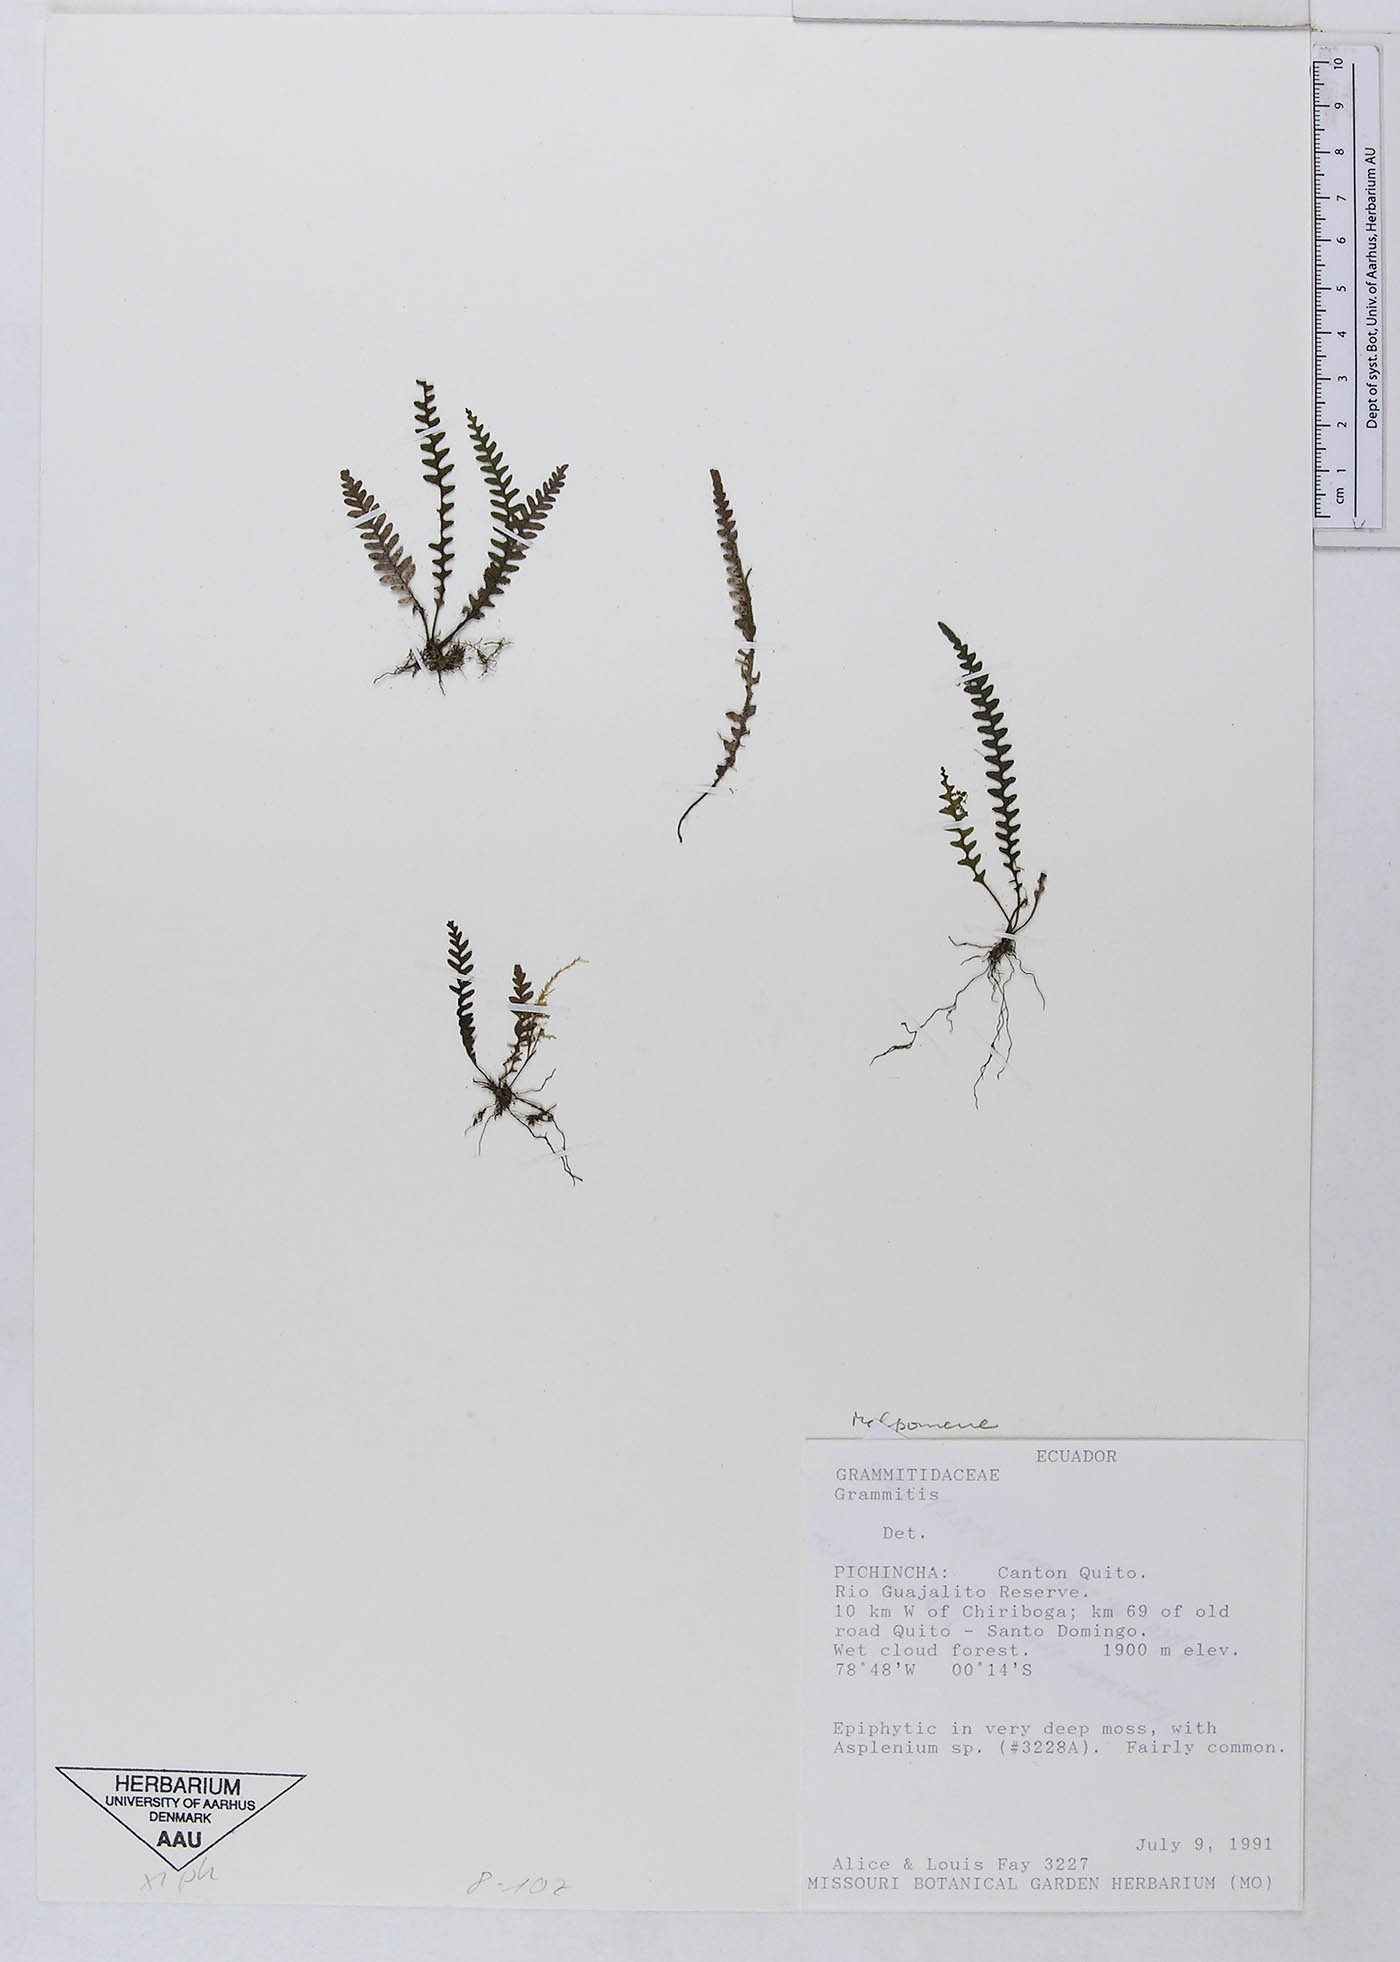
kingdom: Plantae
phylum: Tracheophyta
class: Polypodiopsida
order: Polypodiales
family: Polypodiaceae
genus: Ascogrammitis
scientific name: Ascogrammitis anfractuosa
